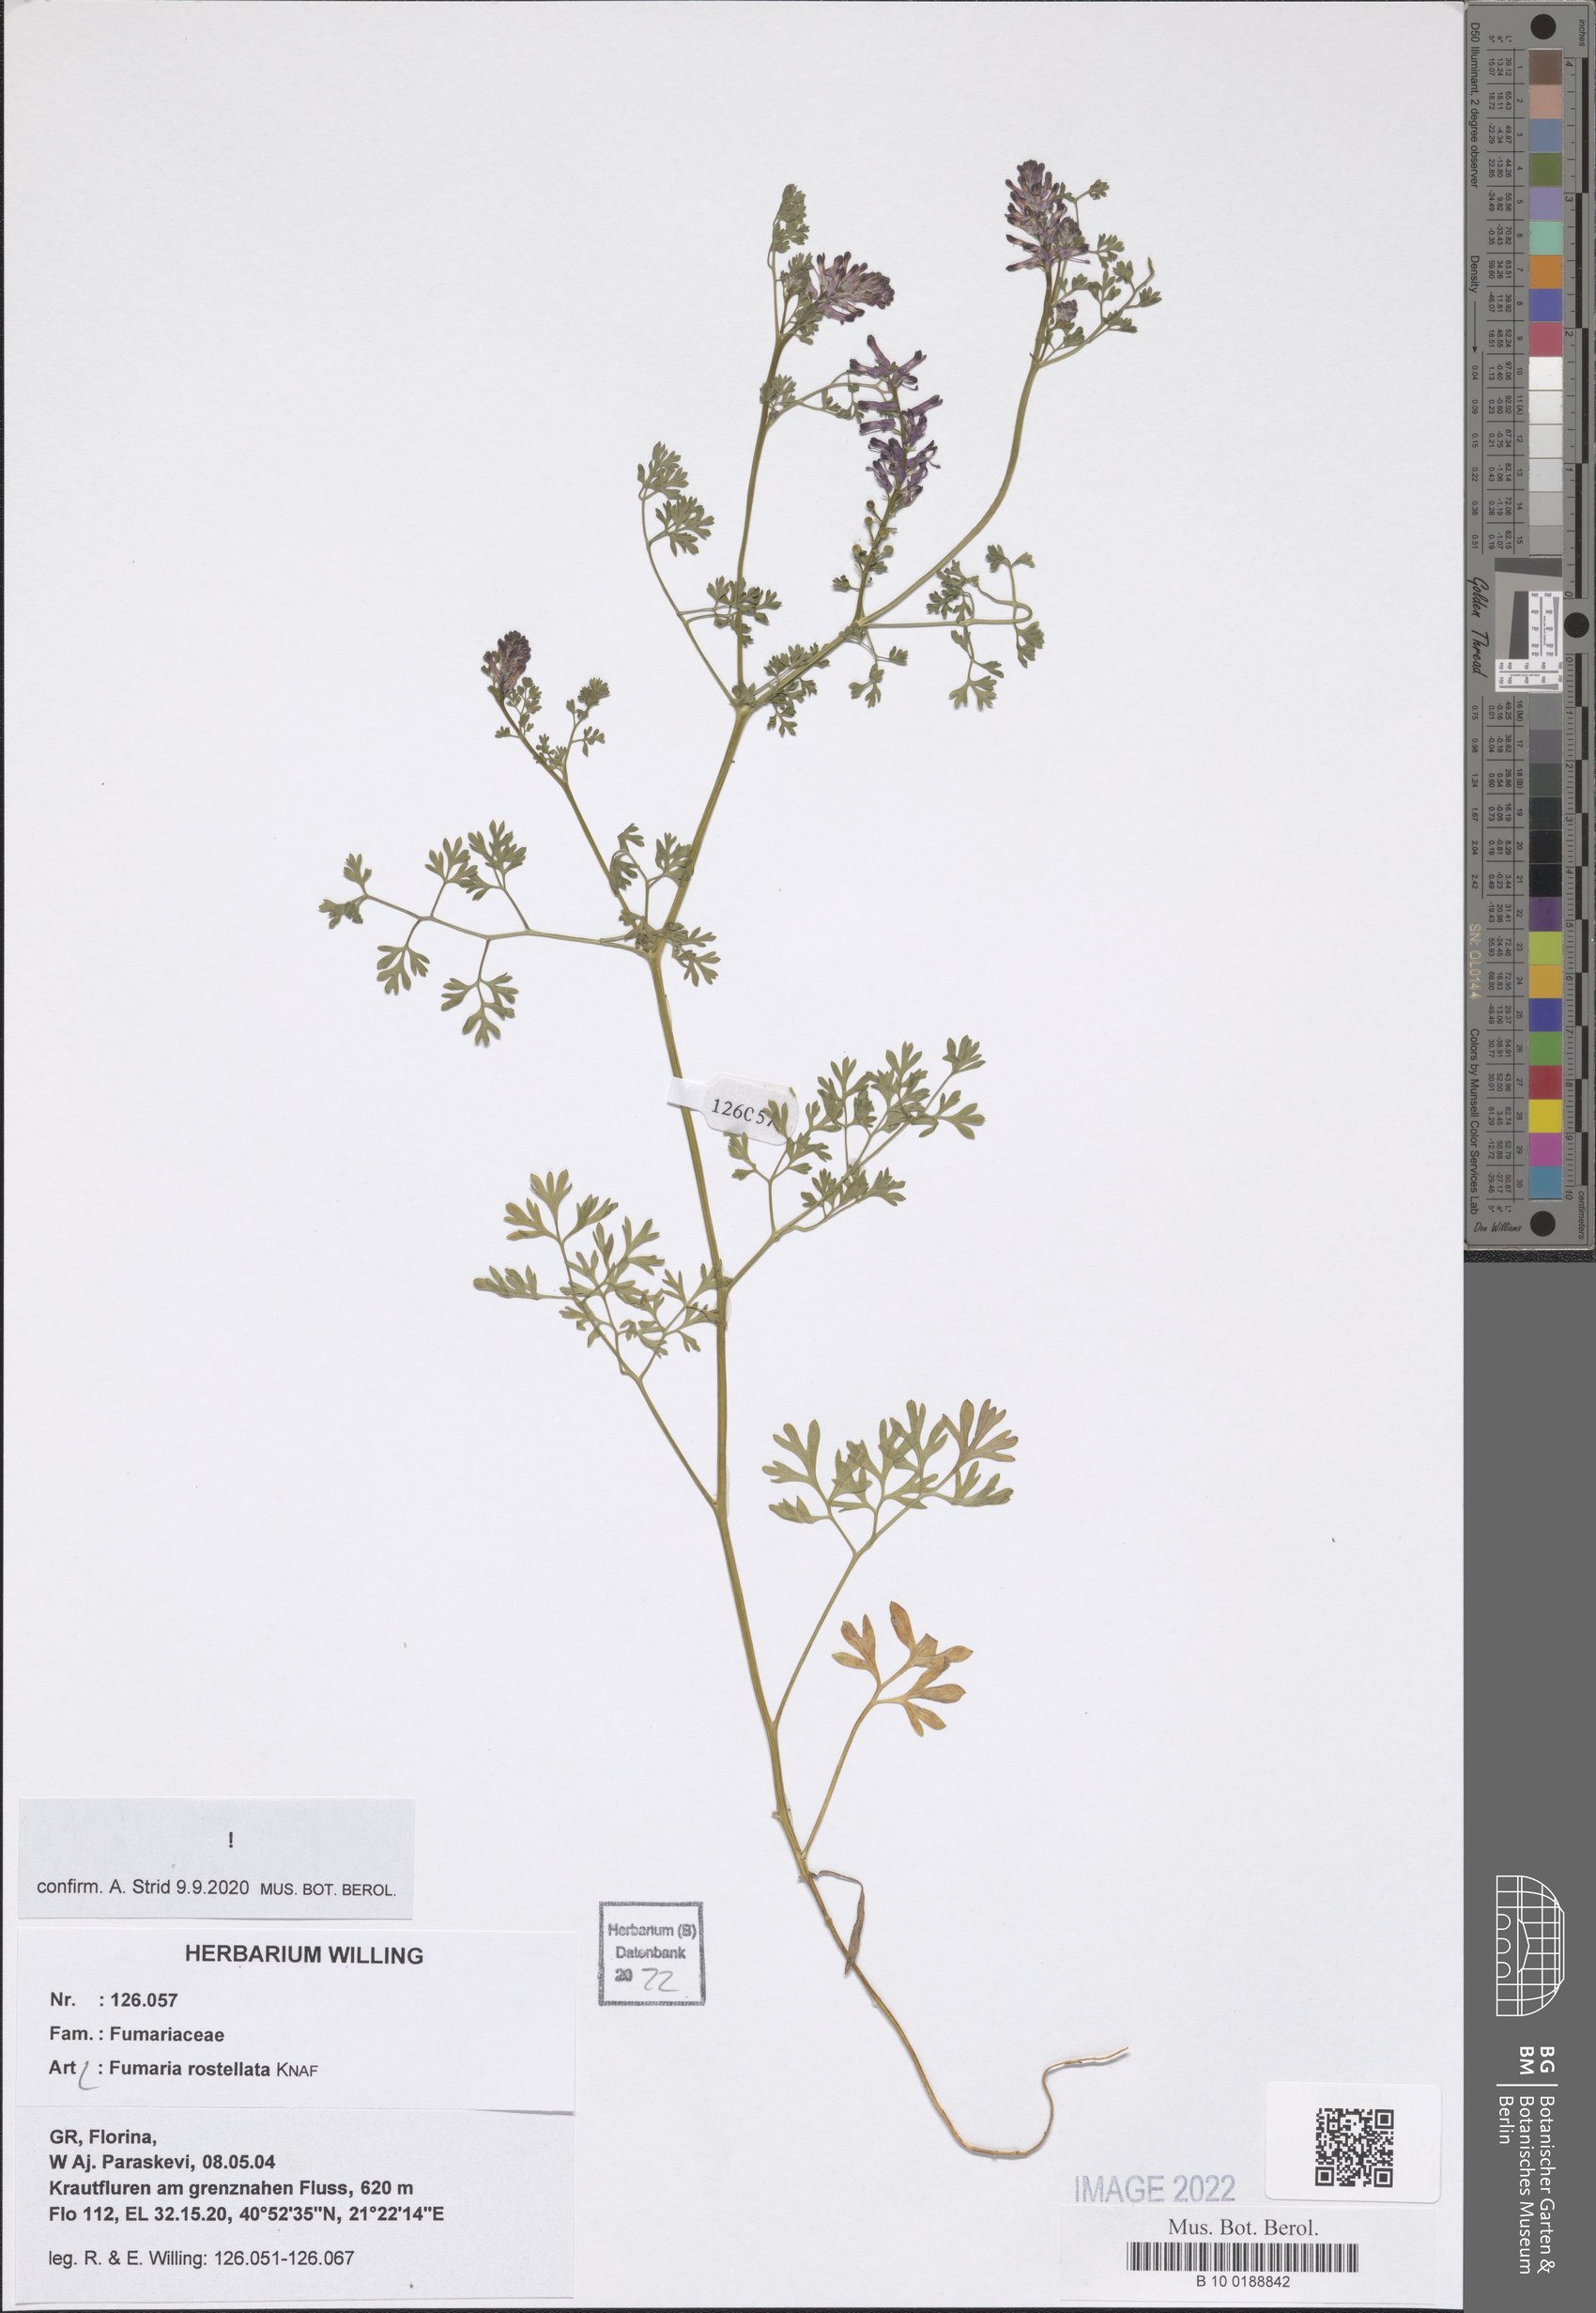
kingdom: Plantae
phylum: Tracheophyta
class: Magnoliopsida
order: Ranunculales
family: Papaveraceae
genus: Fumaria
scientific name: Fumaria rostellata
